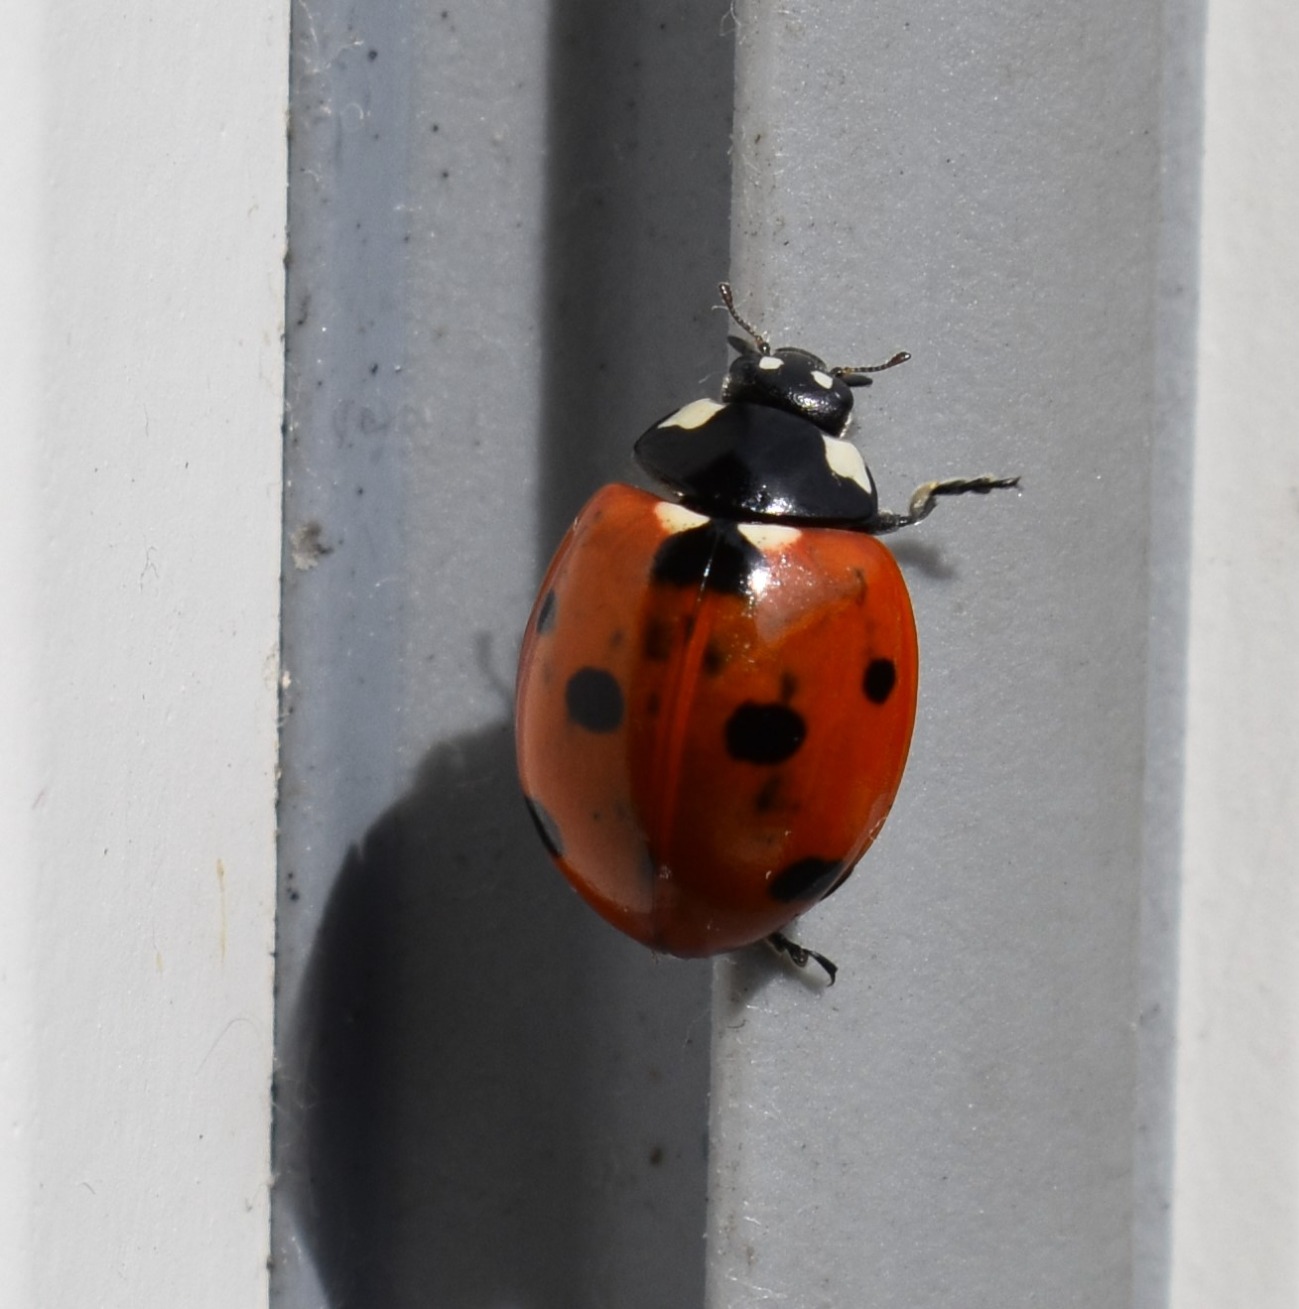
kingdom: Animalia
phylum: Arthropoda
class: Insecta
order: Coleoptera
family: Coccinellidae
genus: Coccinella
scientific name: Coccinella septempunctata
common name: Syvplettet mariehøne
